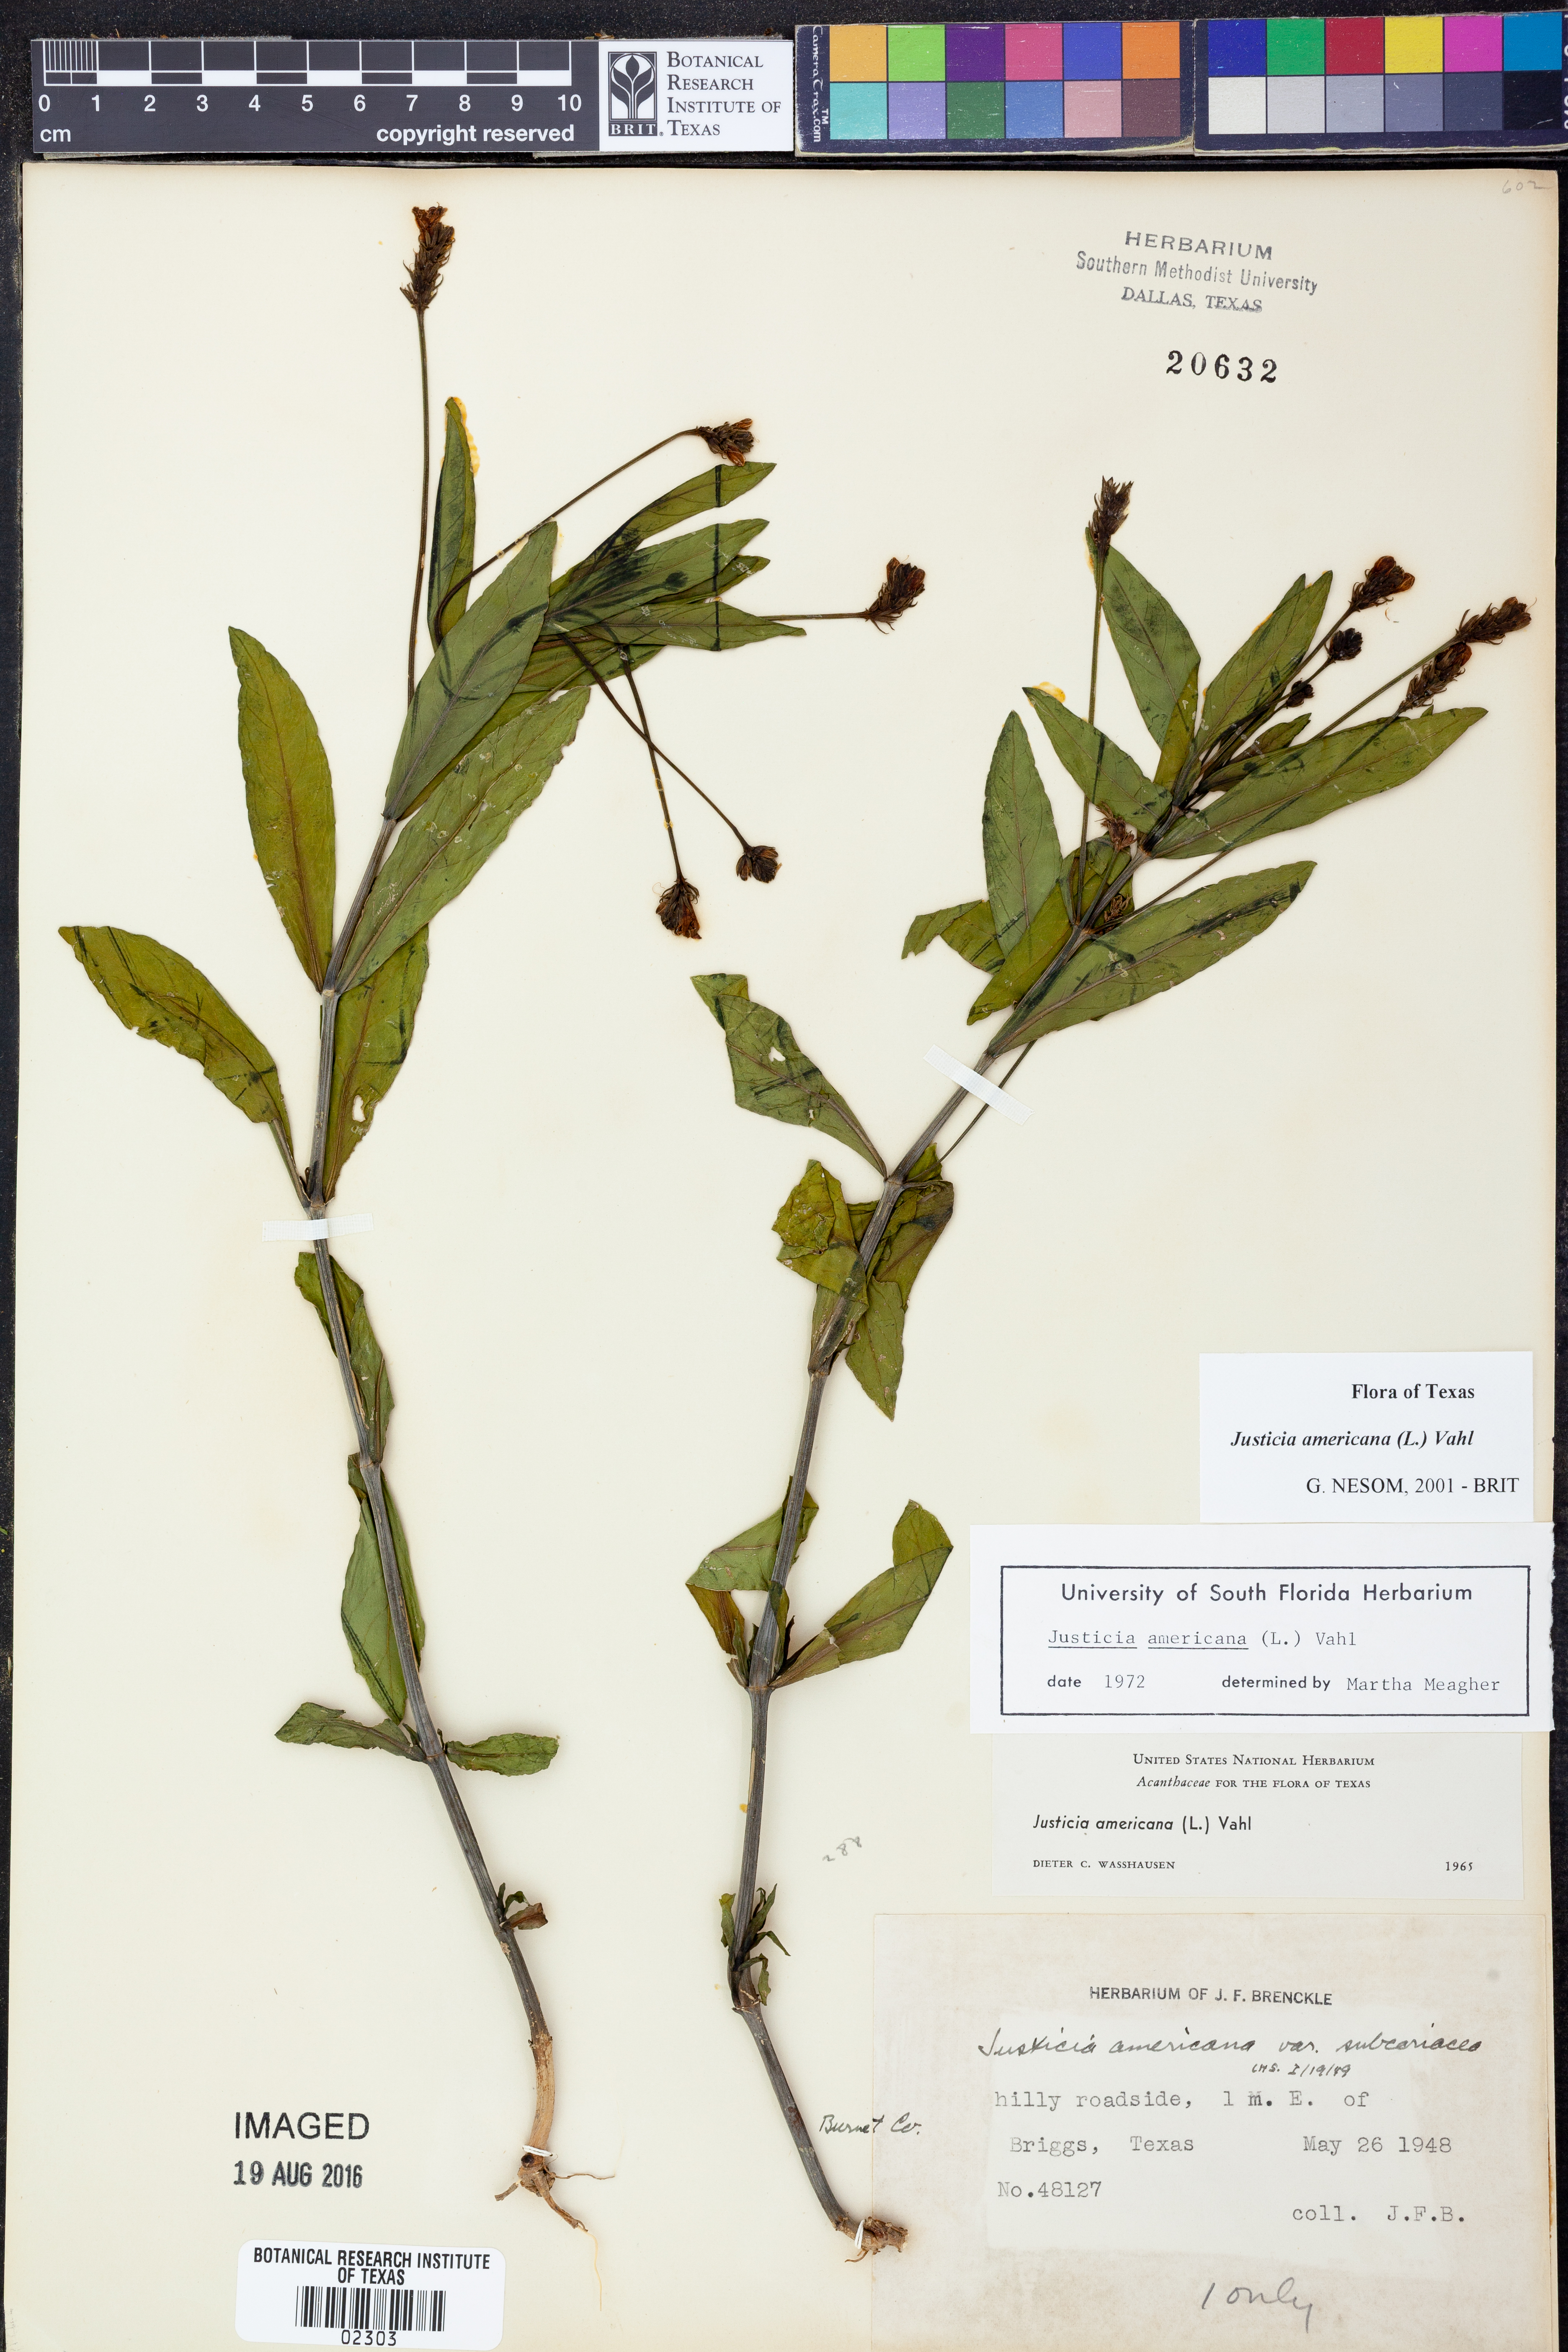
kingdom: Plantae
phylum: Tracheophyta
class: Magnoliopsida
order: Lamiales
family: Acanthaceae
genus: Dianthera
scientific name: Dianthera americana
